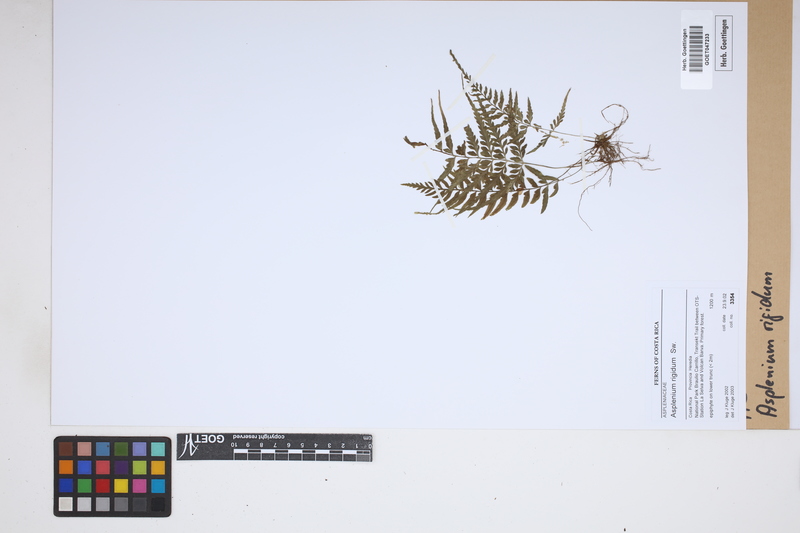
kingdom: Plantae
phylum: Tracheophyta
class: Polypodiopsida
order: Polypodiales
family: Aspleniaceae
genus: Asplenium
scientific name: Asplenium cuspidatum
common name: Eared spleenwort
